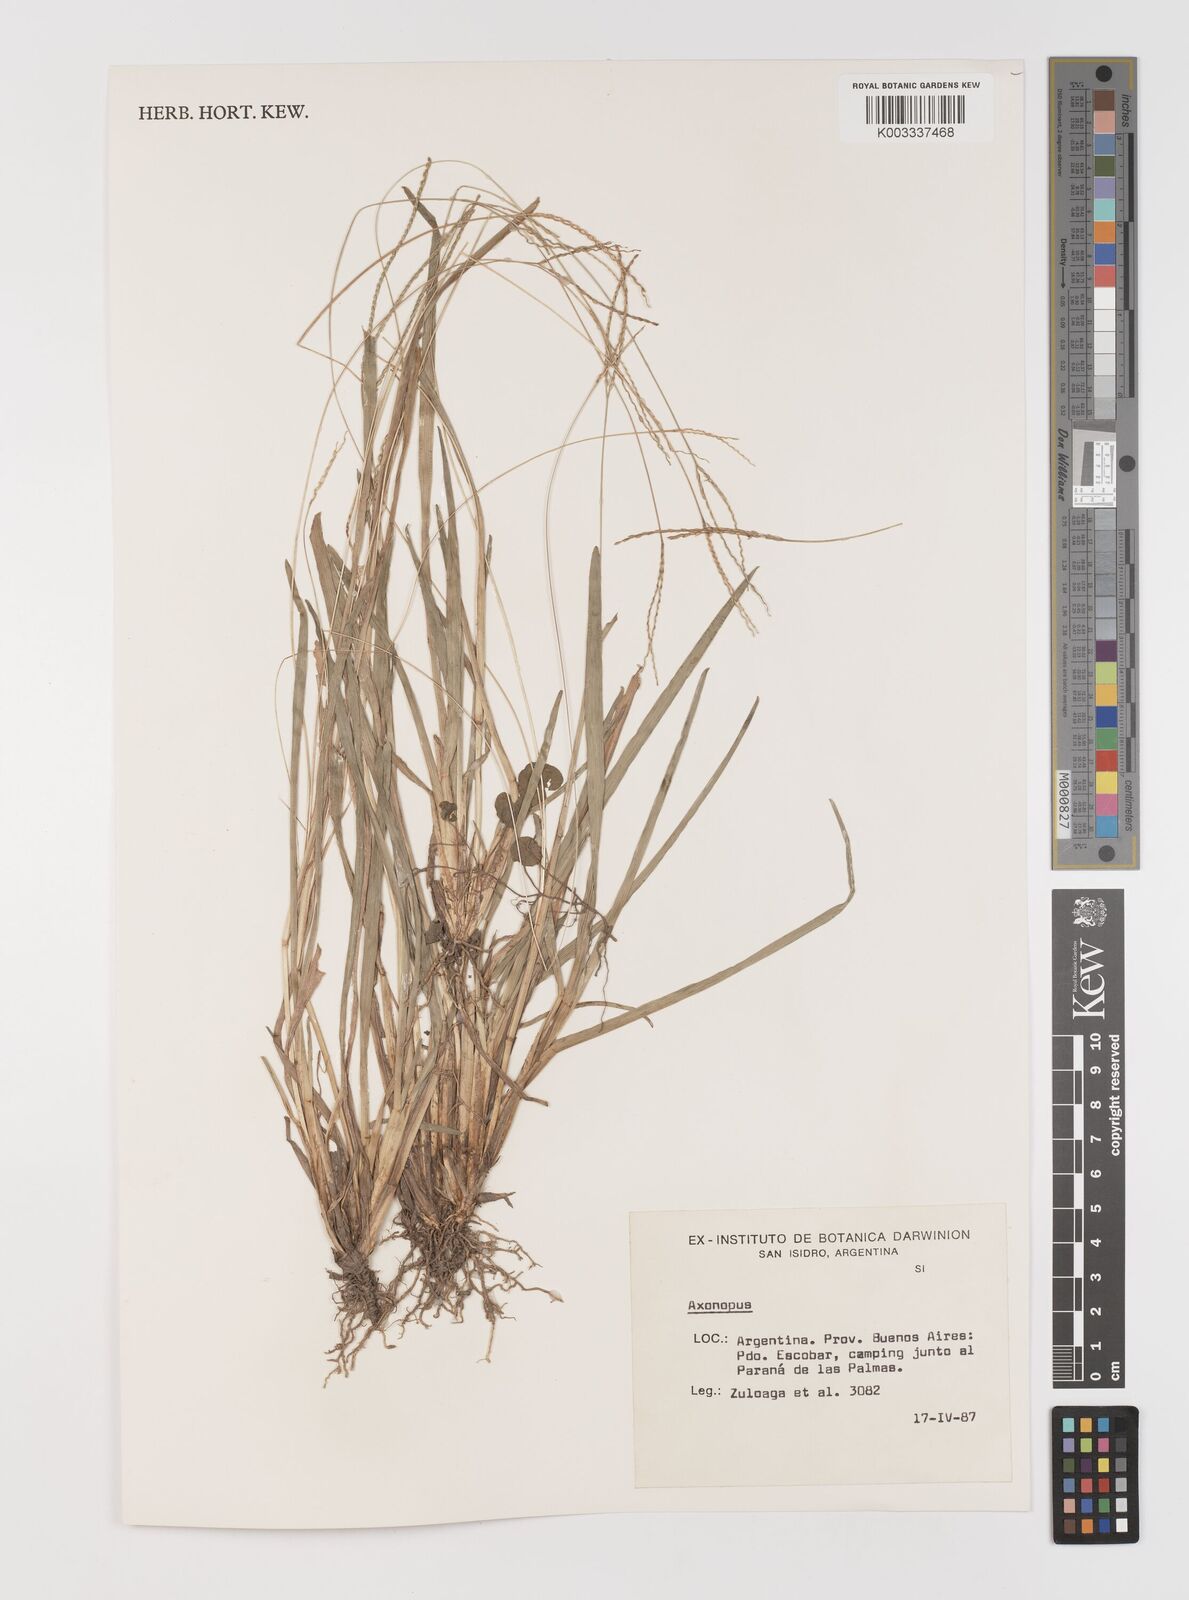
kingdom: Plantae
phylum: Tracheophyta
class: Liliopsida
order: Poales
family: Poaceae
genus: Axonopus
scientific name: Axonopus
